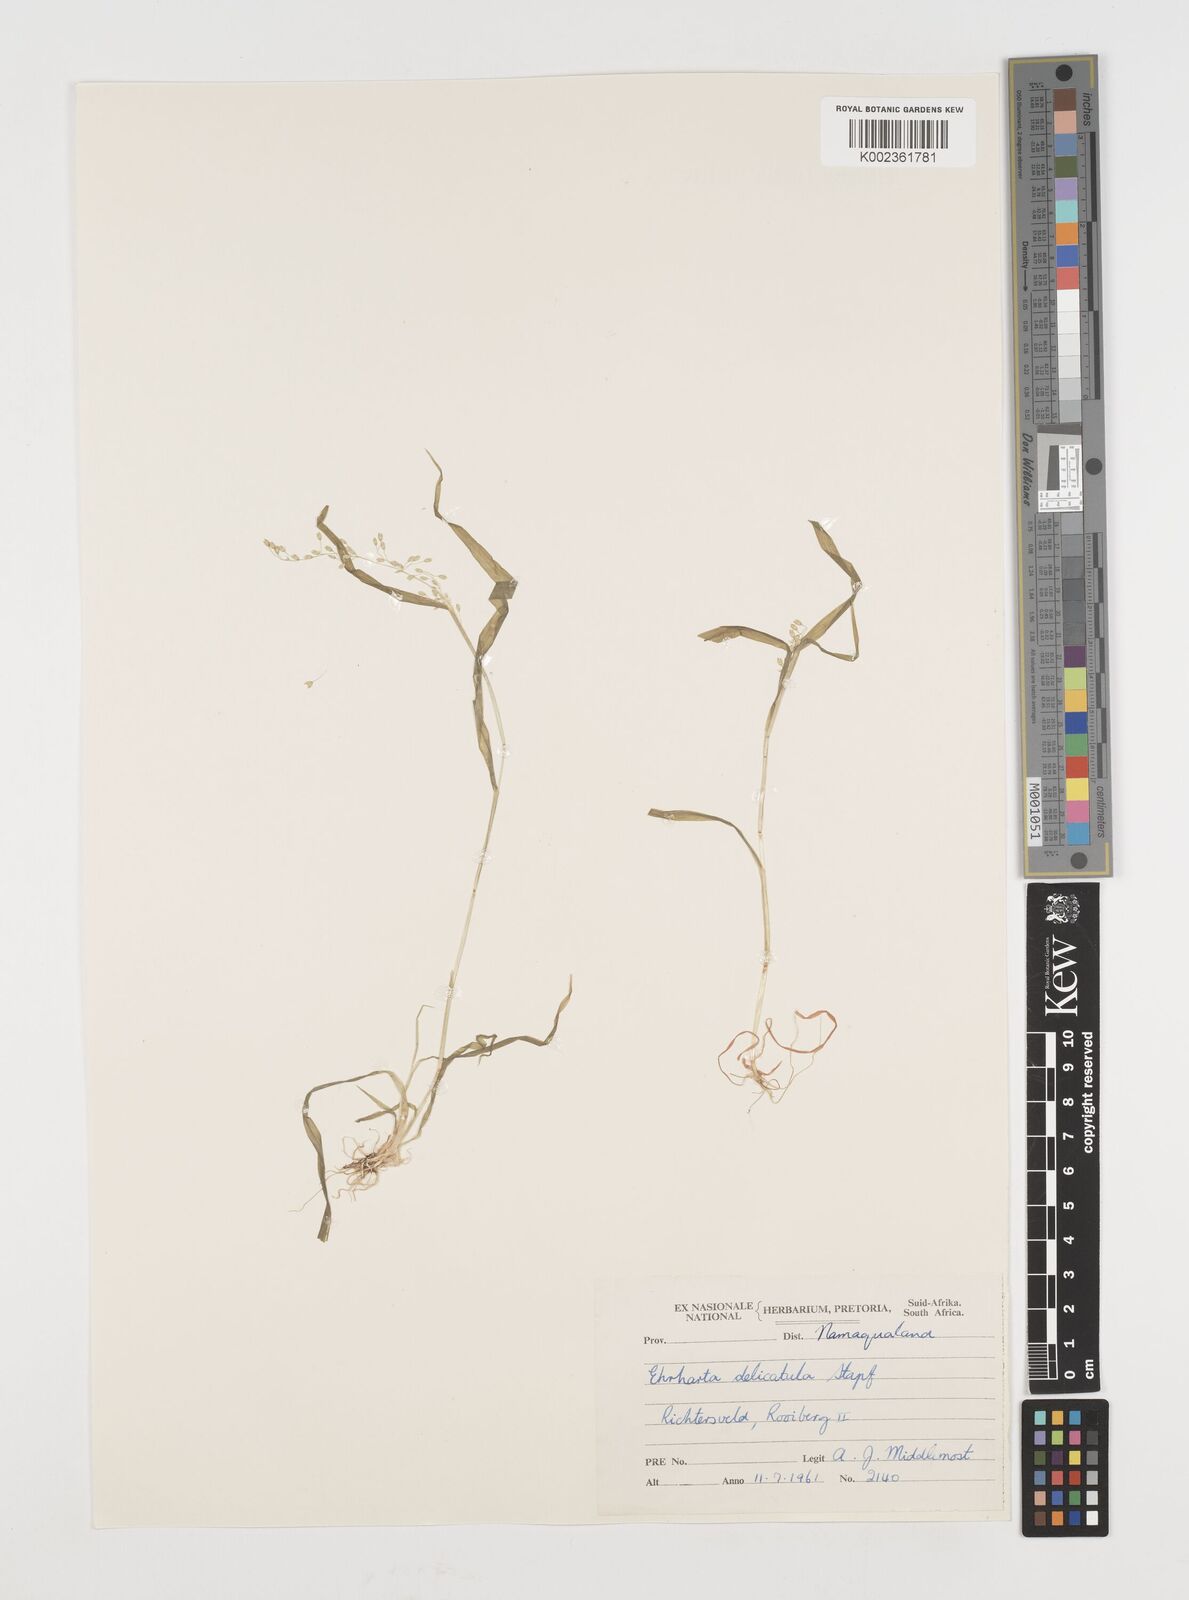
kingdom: Plantae
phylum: Tracheophyta
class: Liliopsida
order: Poales
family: Poaceae
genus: Ehrharta
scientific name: Ehrharta delicatula
